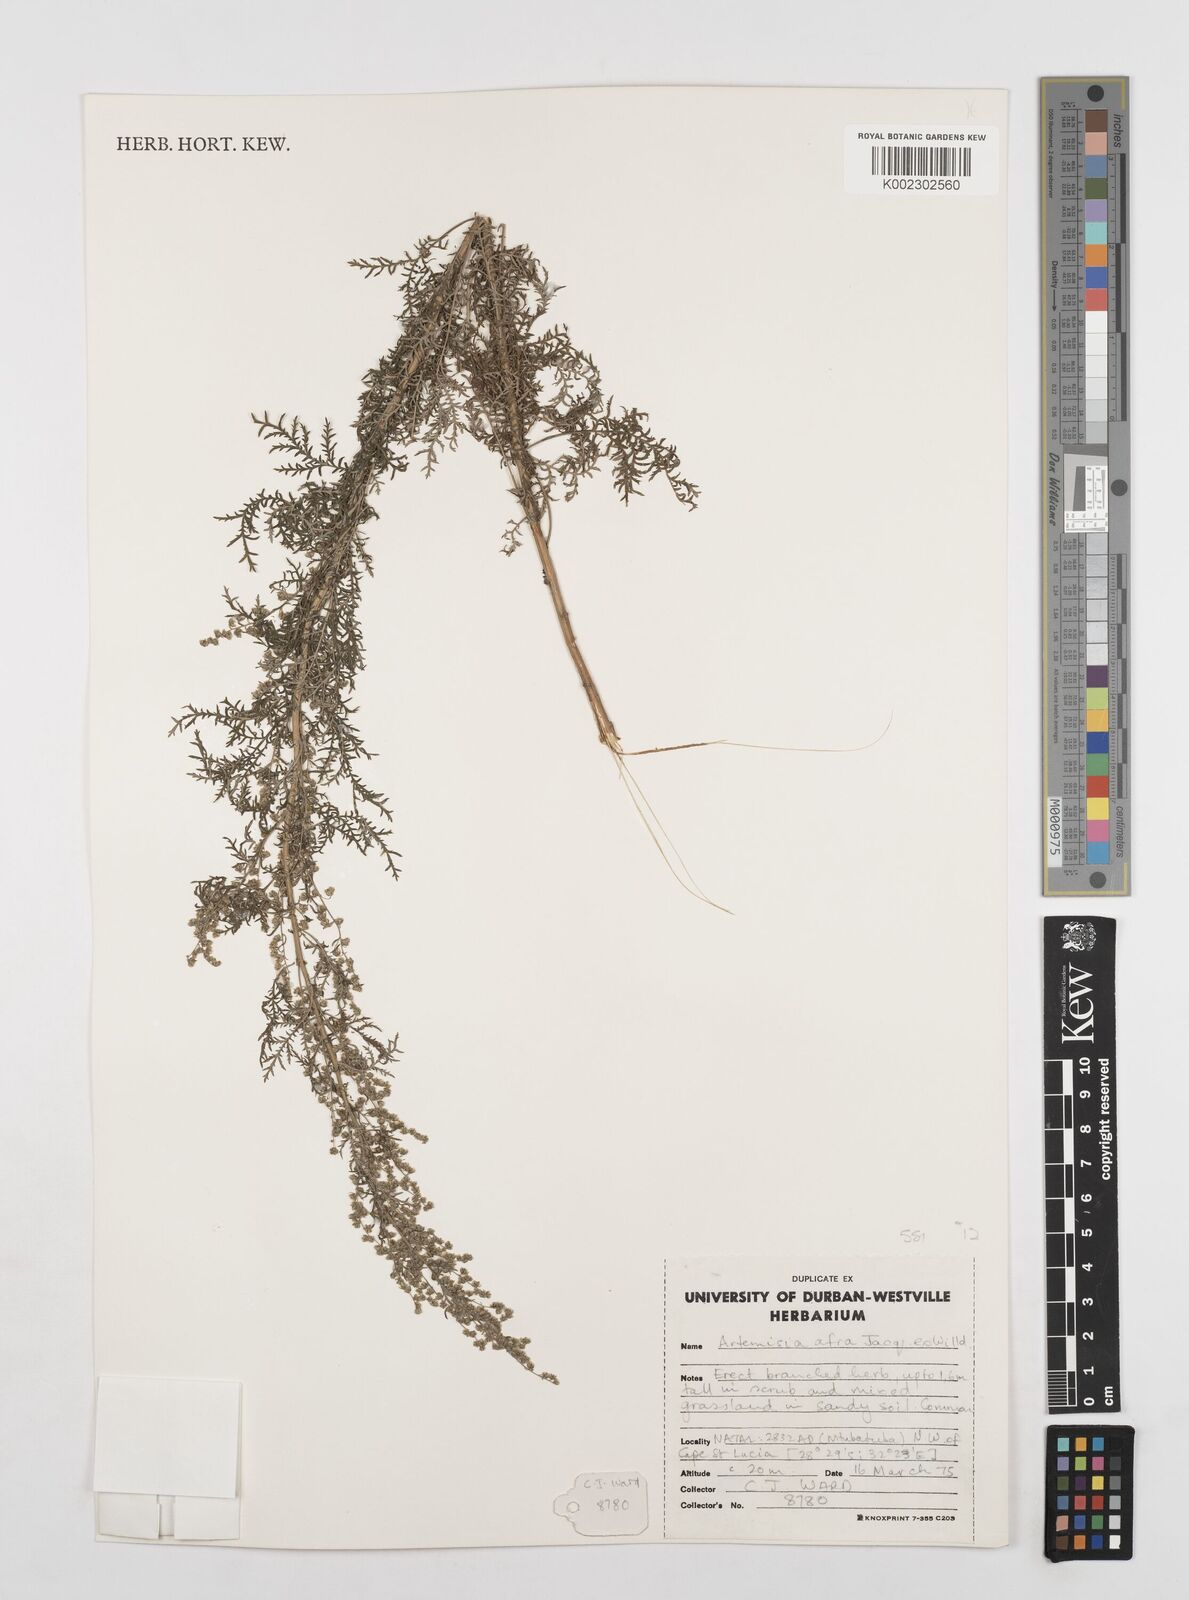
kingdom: Plantae
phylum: Tracheophyta
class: Magnoliopsida
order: Asterales
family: Asteraceae
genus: Artemisia
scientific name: Artemisia afra
